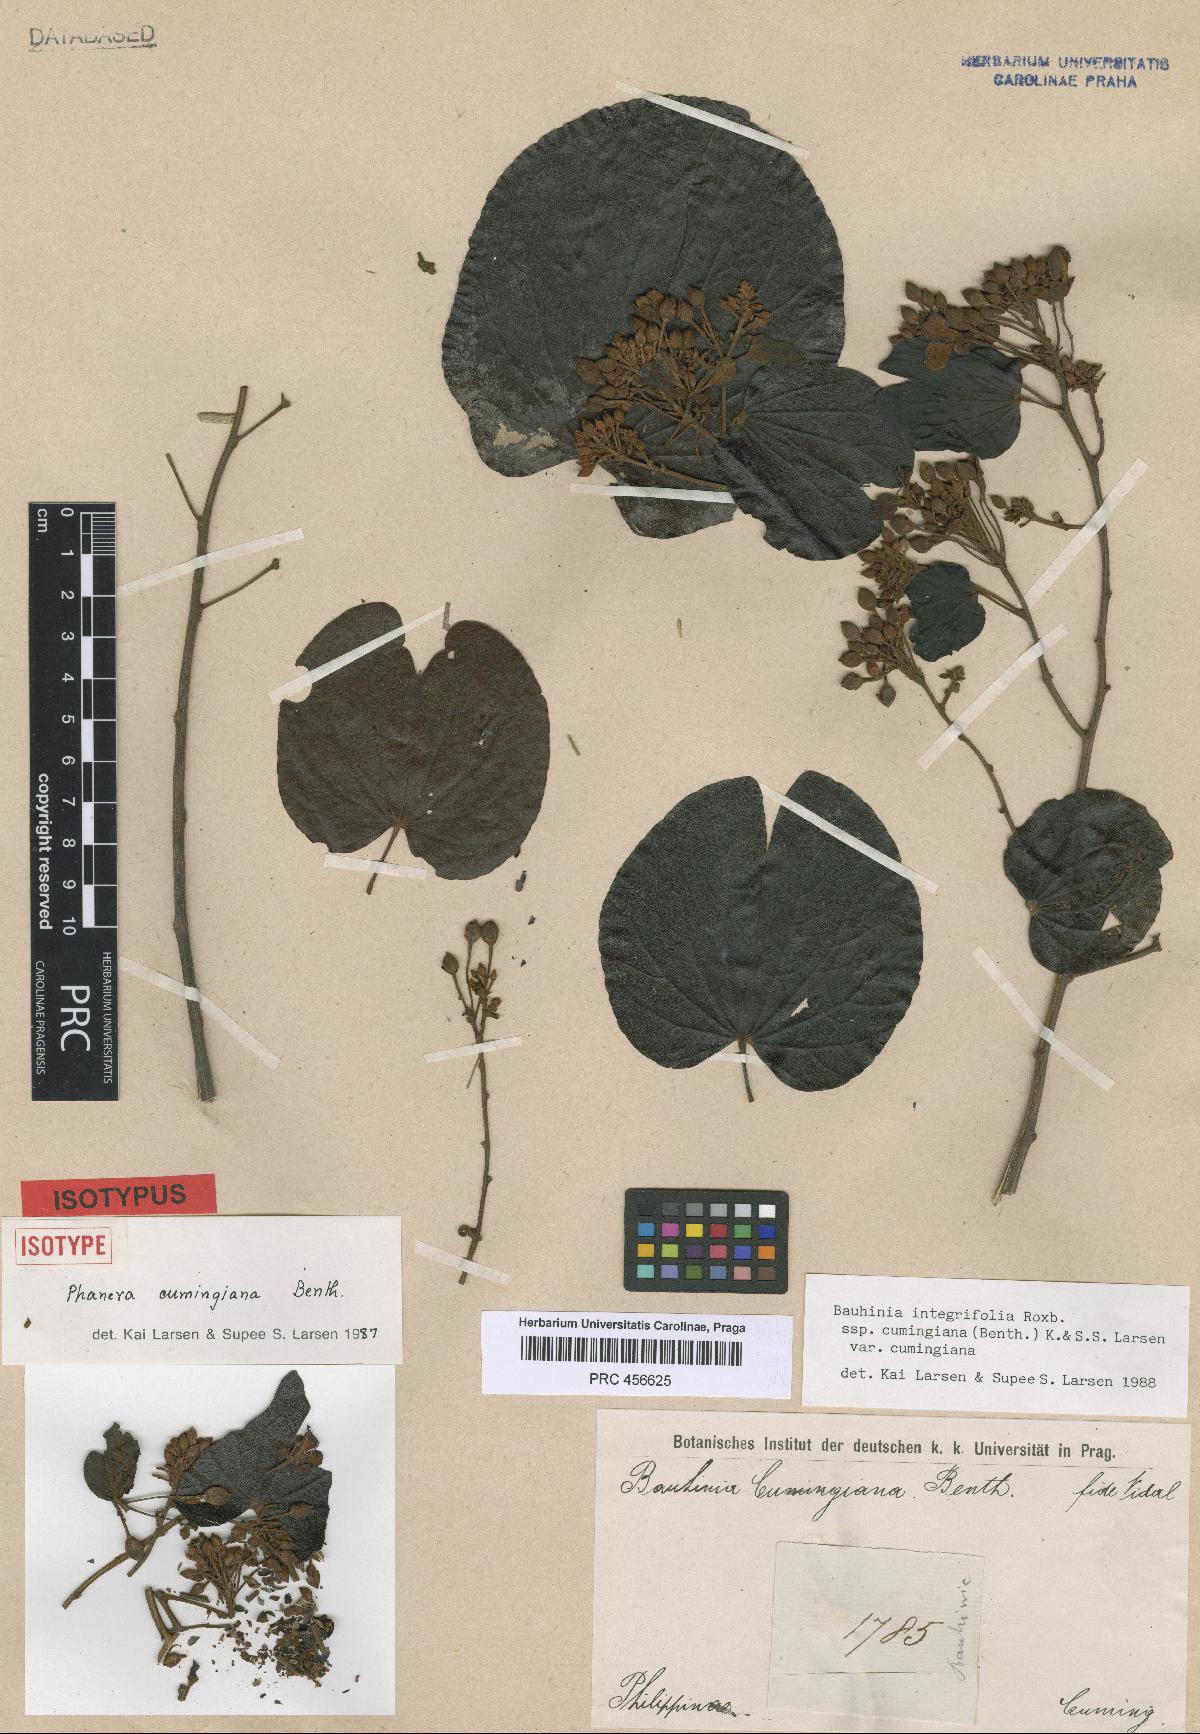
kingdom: Plantae
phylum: Tracheophyta
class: Magnoliopsida
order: Fabales
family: Fabaceae
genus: Phanera
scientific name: Phanera integrifolia
